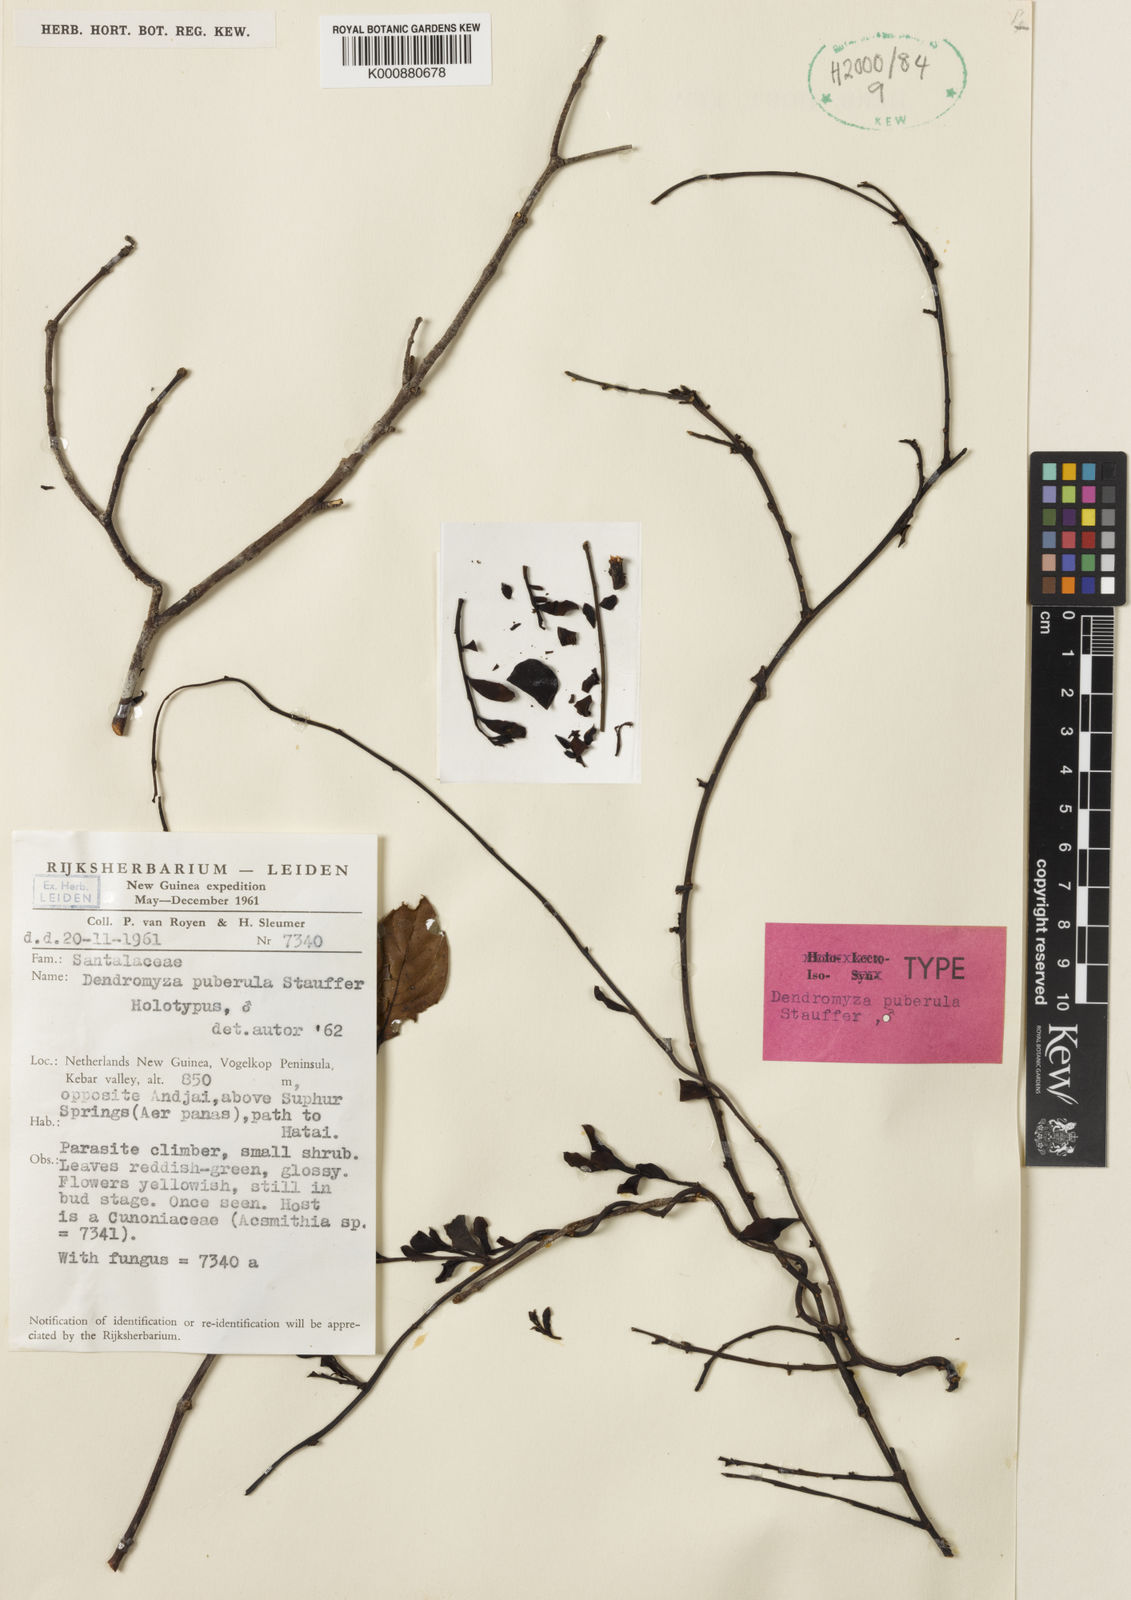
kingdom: Plantae
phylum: Tracheophyta
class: Magnoliopsida
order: Santalales
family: Amphorogynaceae
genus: Dendromyza
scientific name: Dendromyza puberula
